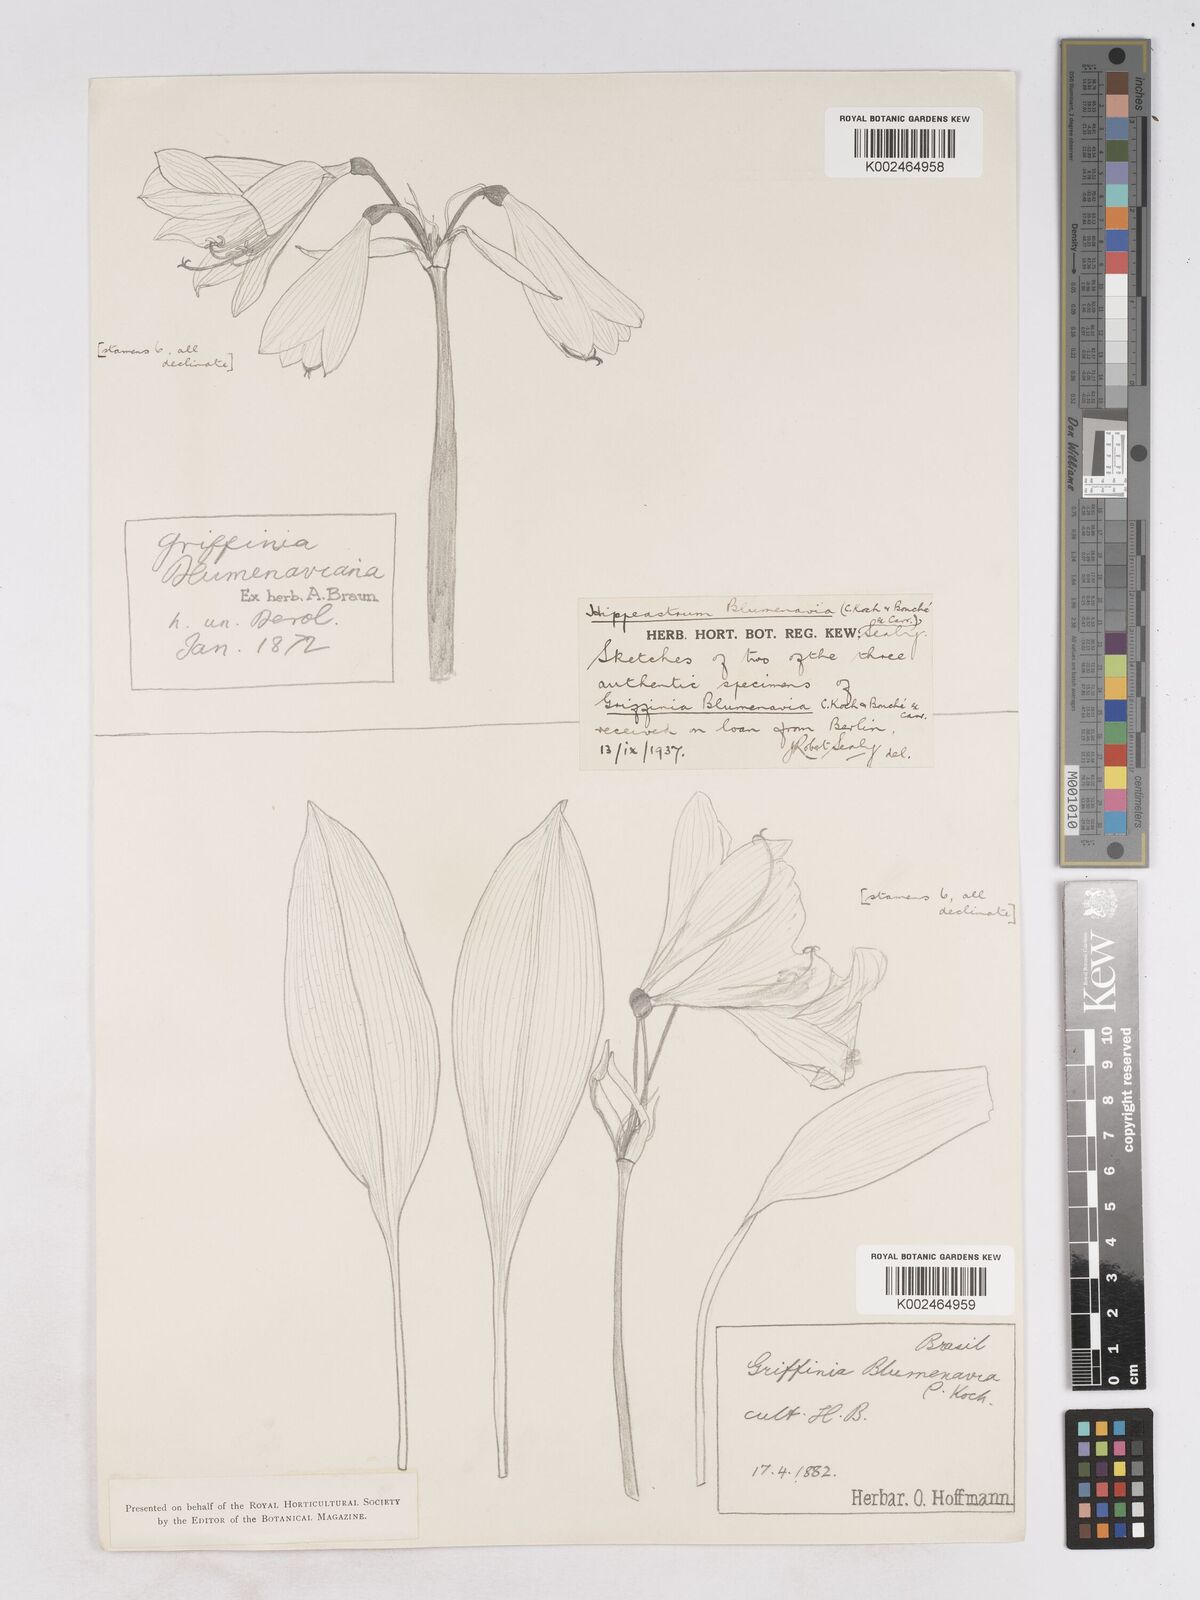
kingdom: Plantae
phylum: Tracheophyta
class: Liliopsida
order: Asparagales
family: Amaryllidaceae
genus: Zephyranthes
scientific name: Zephyranthes blumenavia
